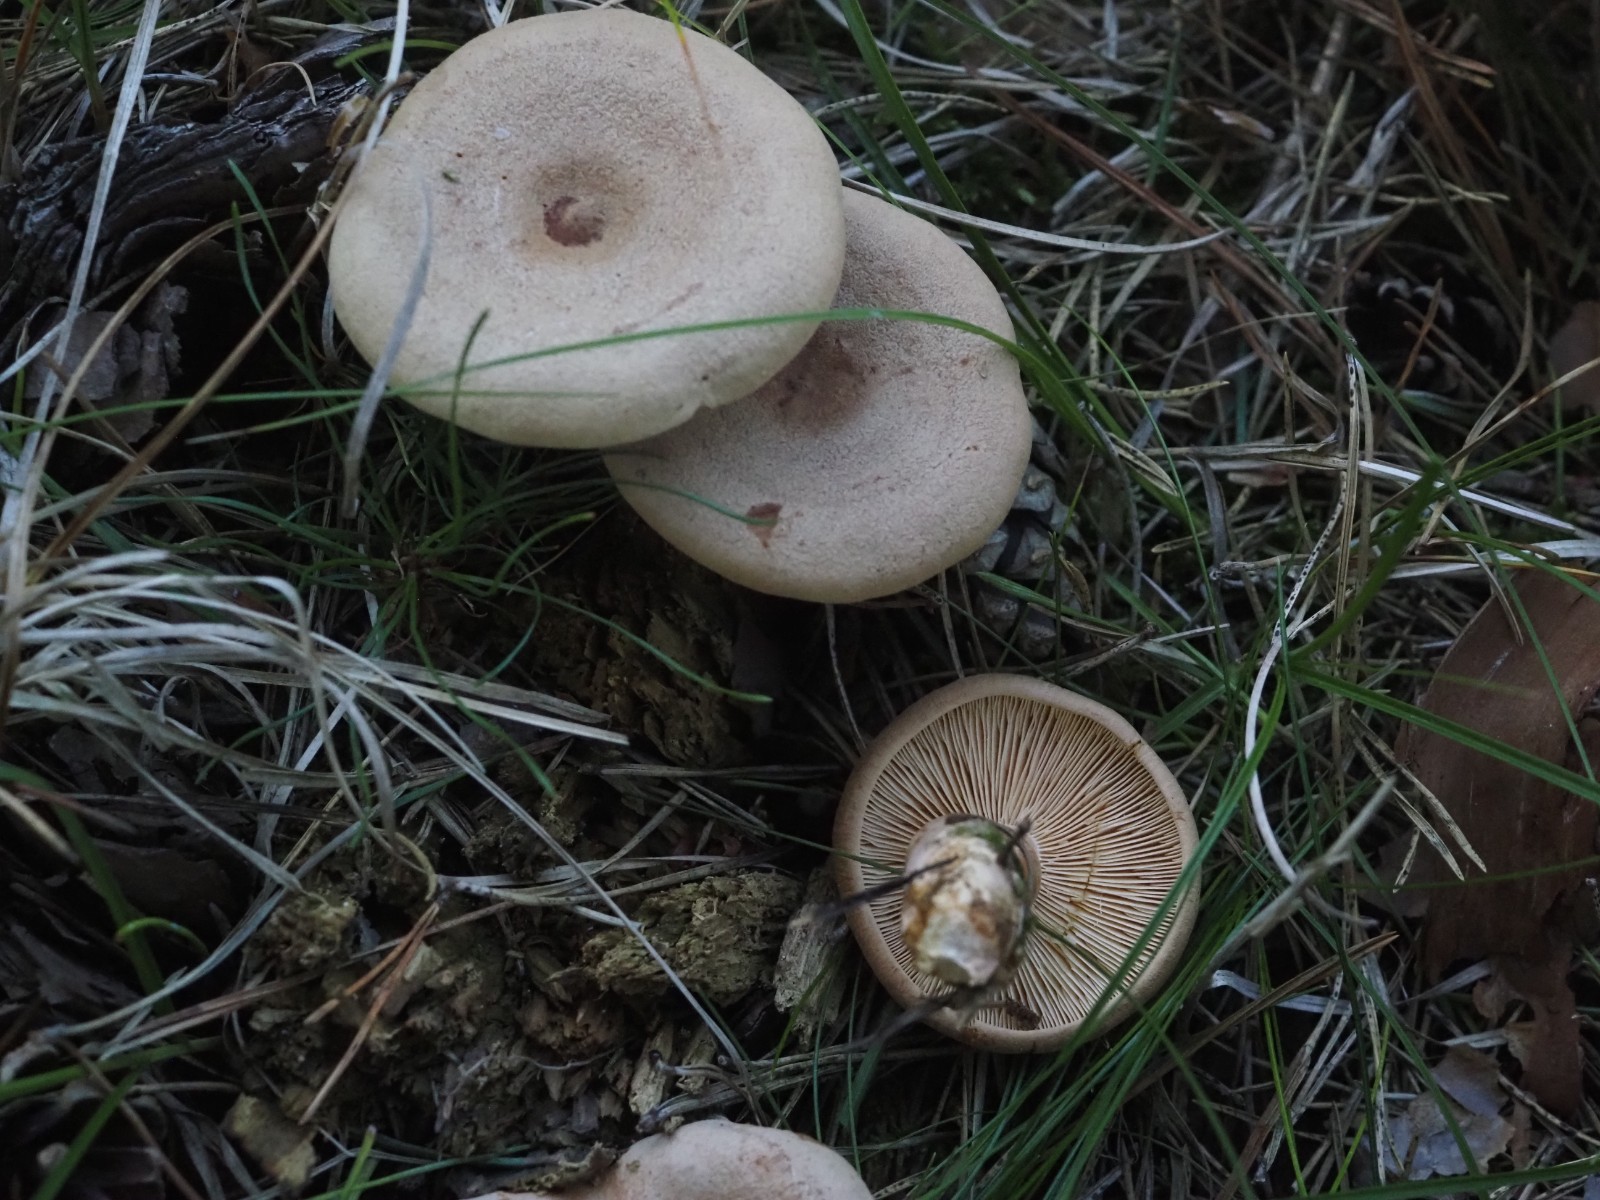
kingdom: Fungi
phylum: Basidiomycota
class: Agaricomycetes
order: Russulales
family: Russulaceae
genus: Lactarius
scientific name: Lactarius helvus
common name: mose-mælkehat
